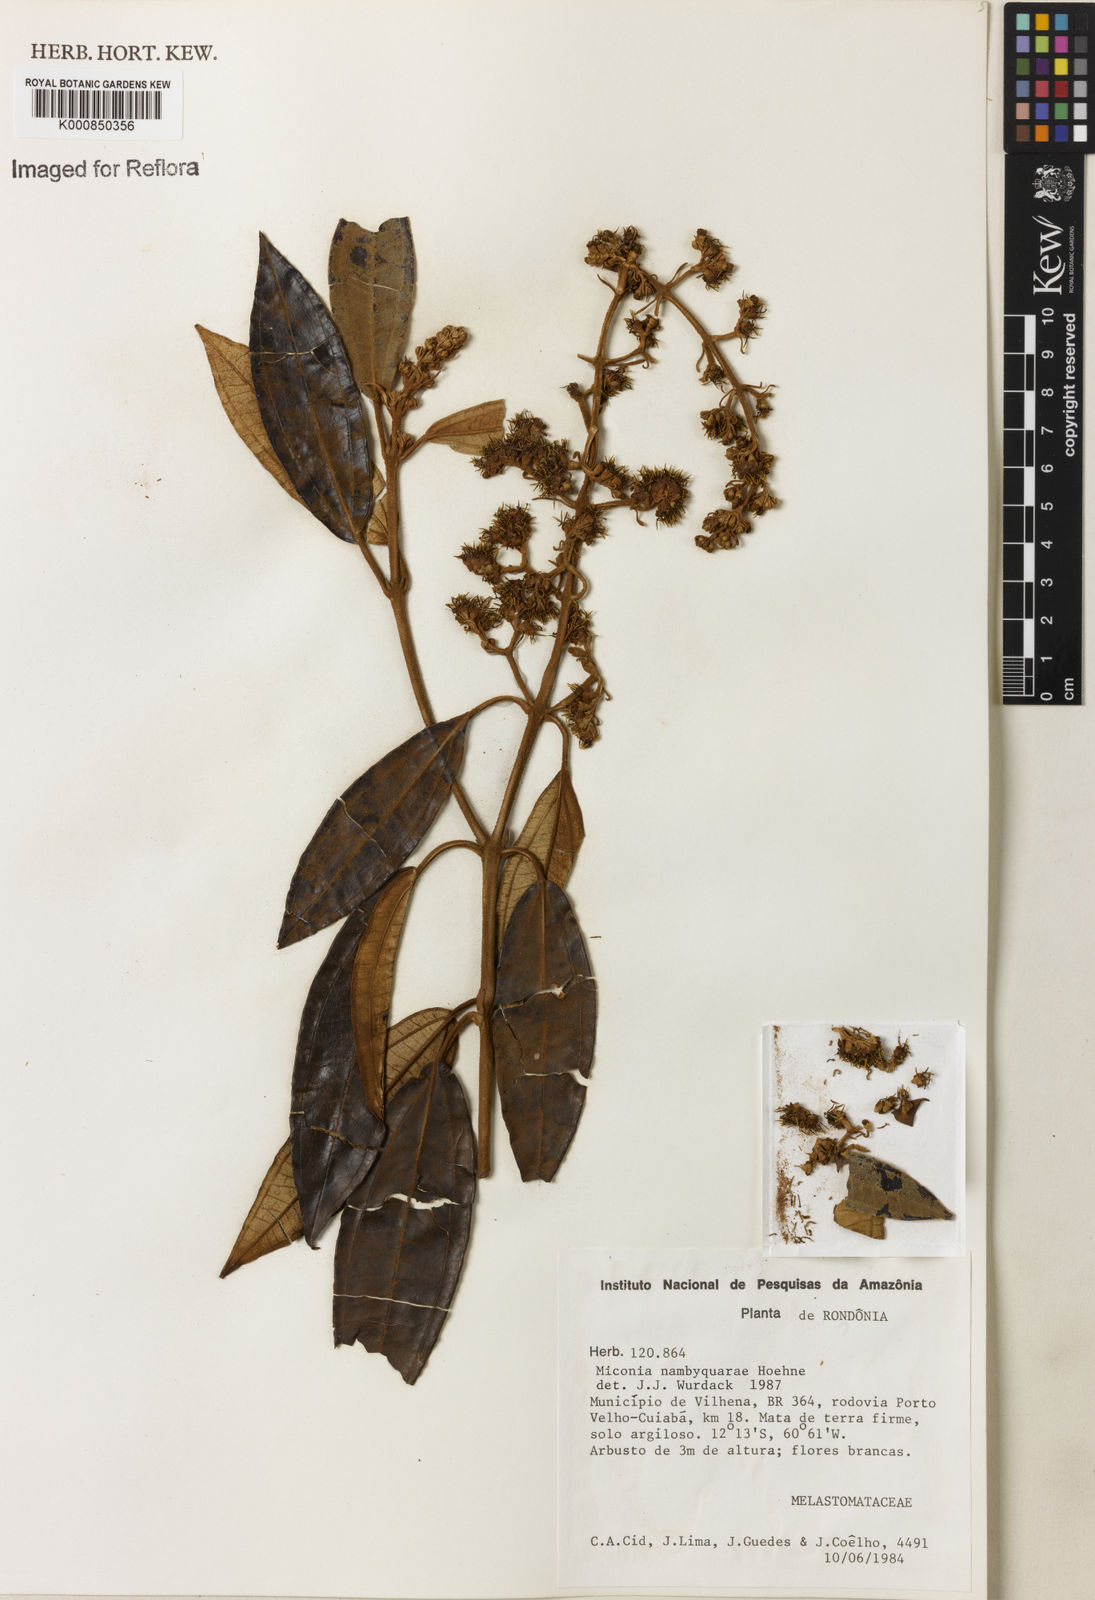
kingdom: Plantae
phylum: Tracheophyta
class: Magnoliopsida
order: Myrtales
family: Melastomataceae
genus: Miconia
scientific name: Miconia nambyquarae
